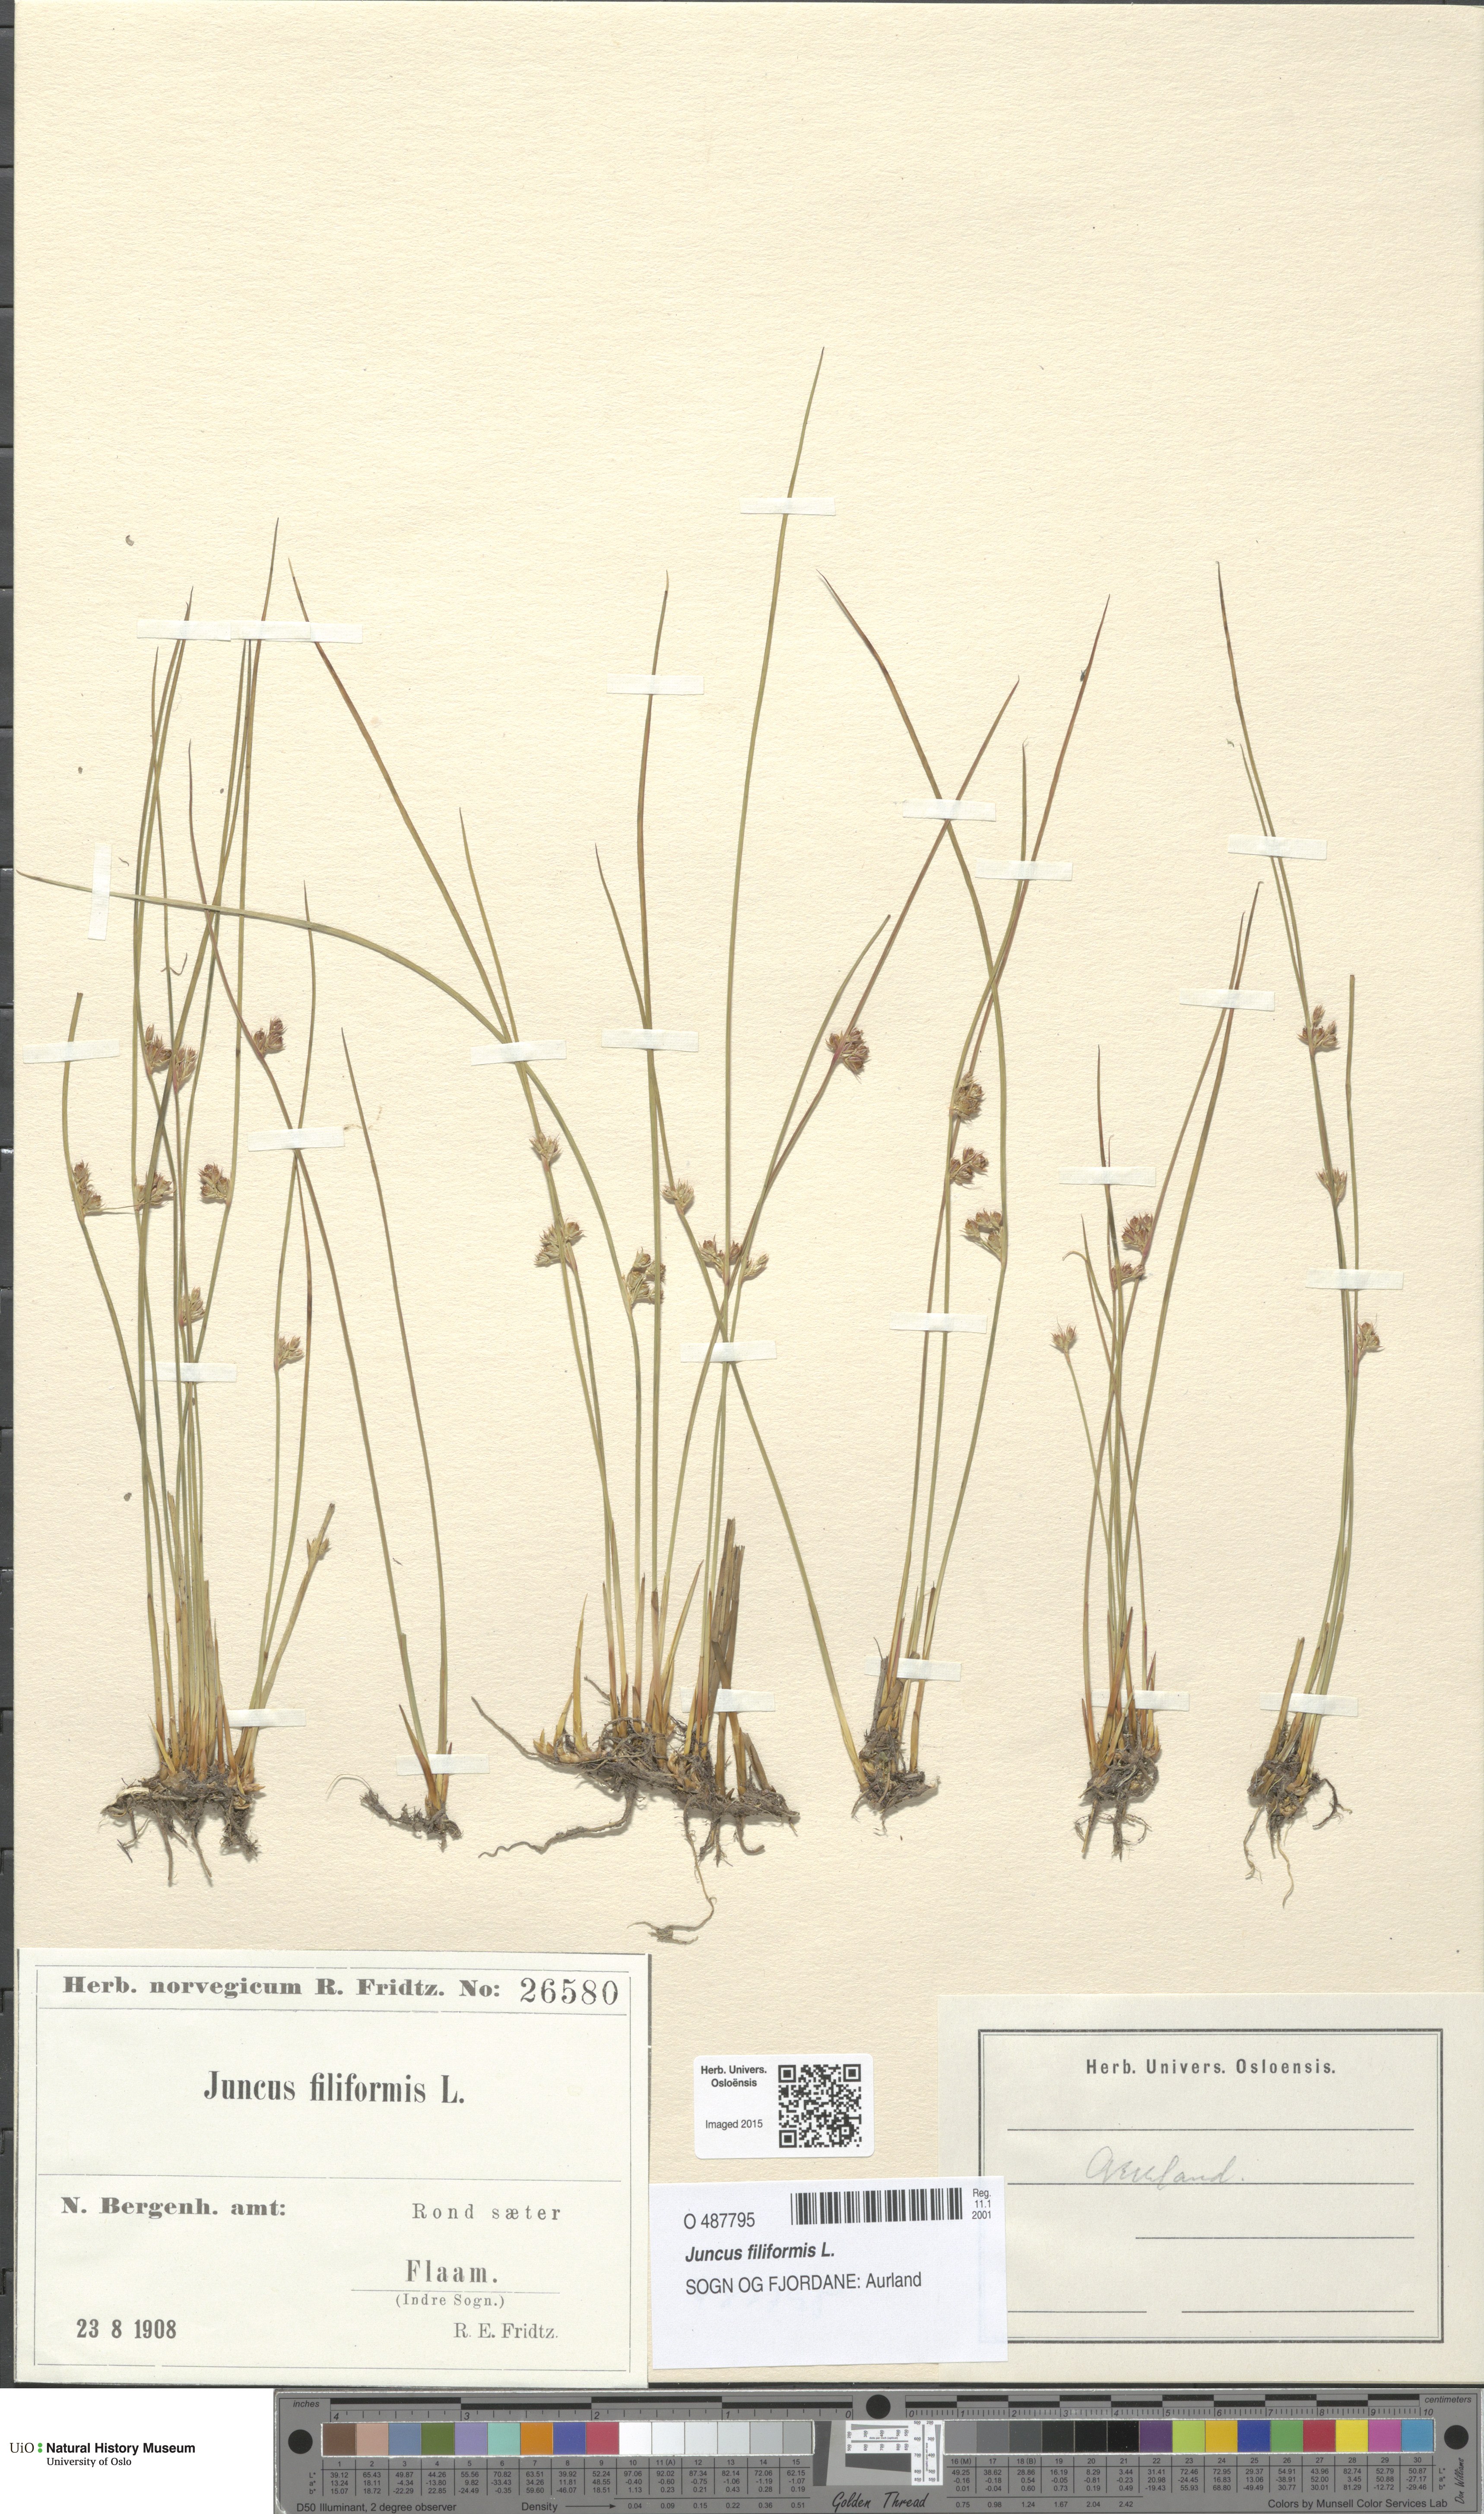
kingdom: Plantae
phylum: Tracheophyta
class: Liliopsida
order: Poales
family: Juncaceae
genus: Juncus
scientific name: Juncus filiformis
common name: Thread rush
